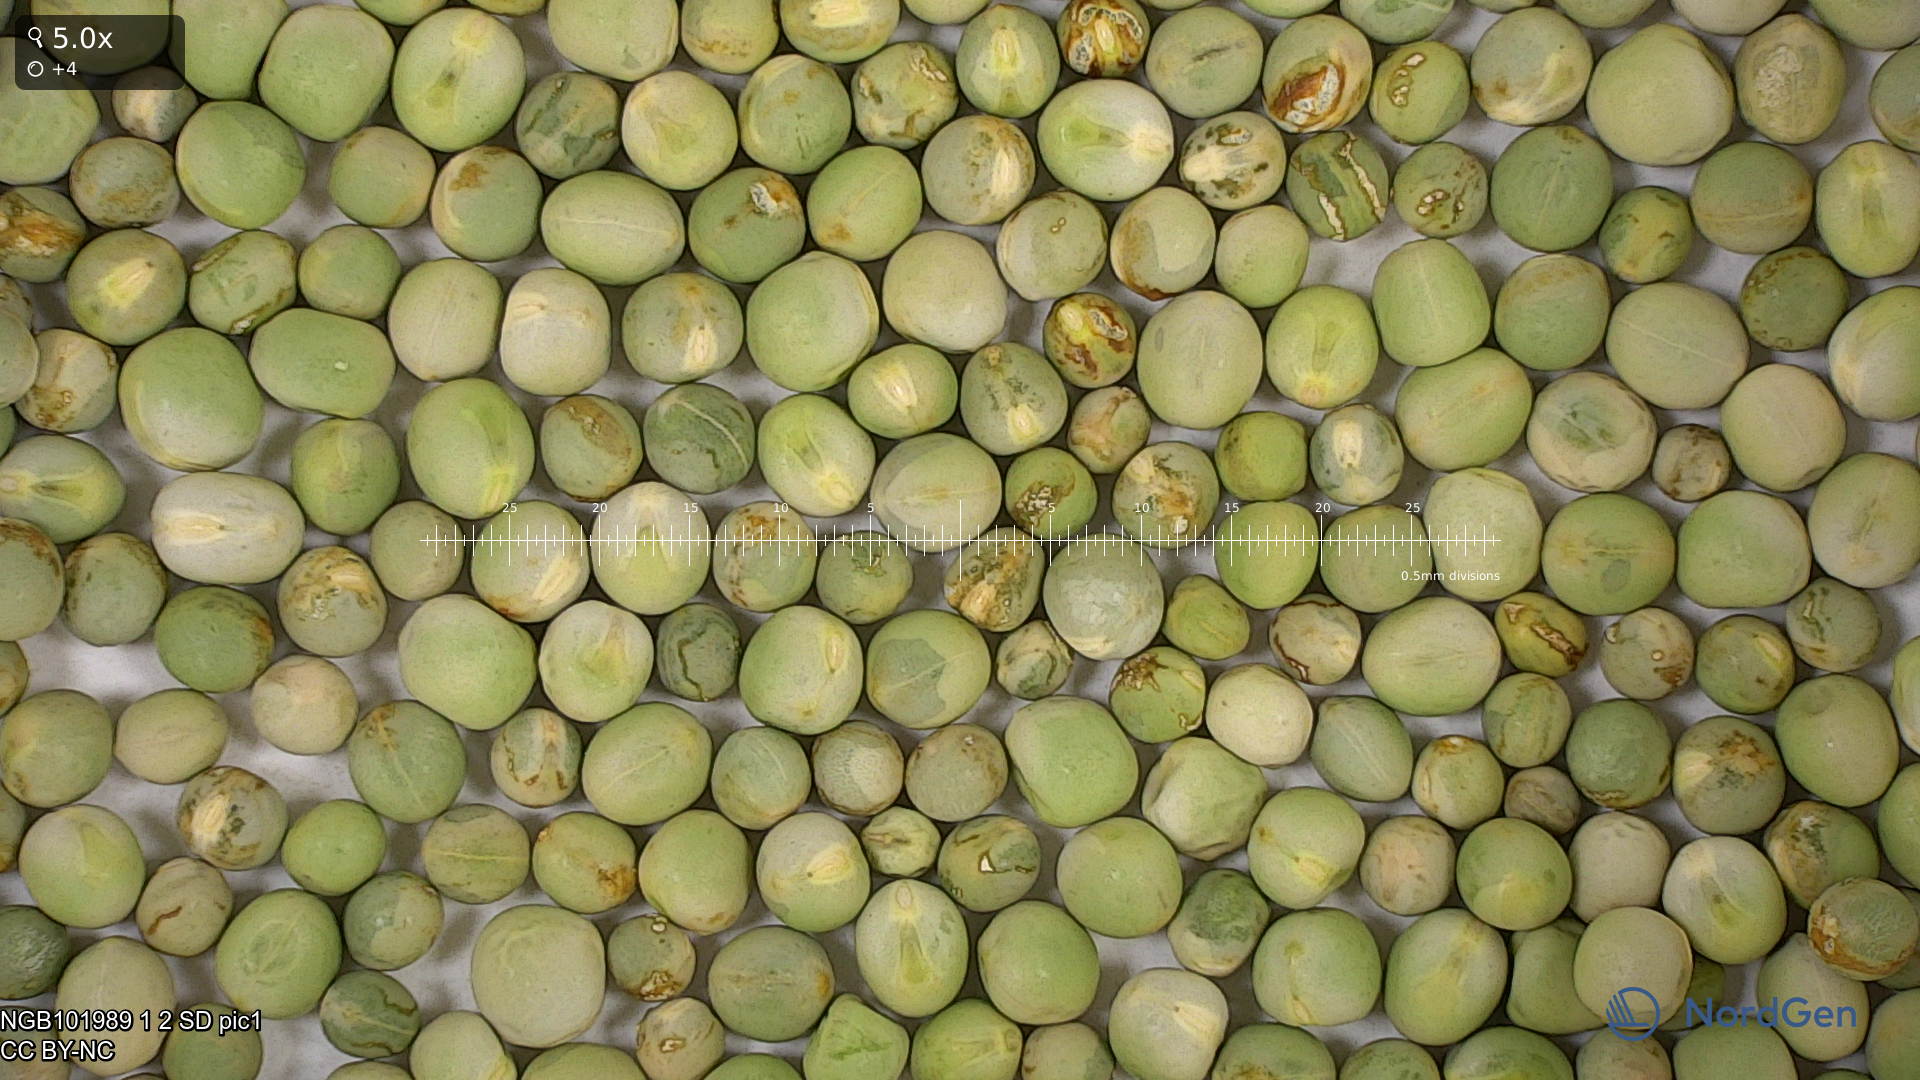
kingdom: Plantae
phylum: Tracheophyta
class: Magnoliopsida
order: Fabales
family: Fabaceae
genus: Lathyrus
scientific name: Lathyrus oleraceus
